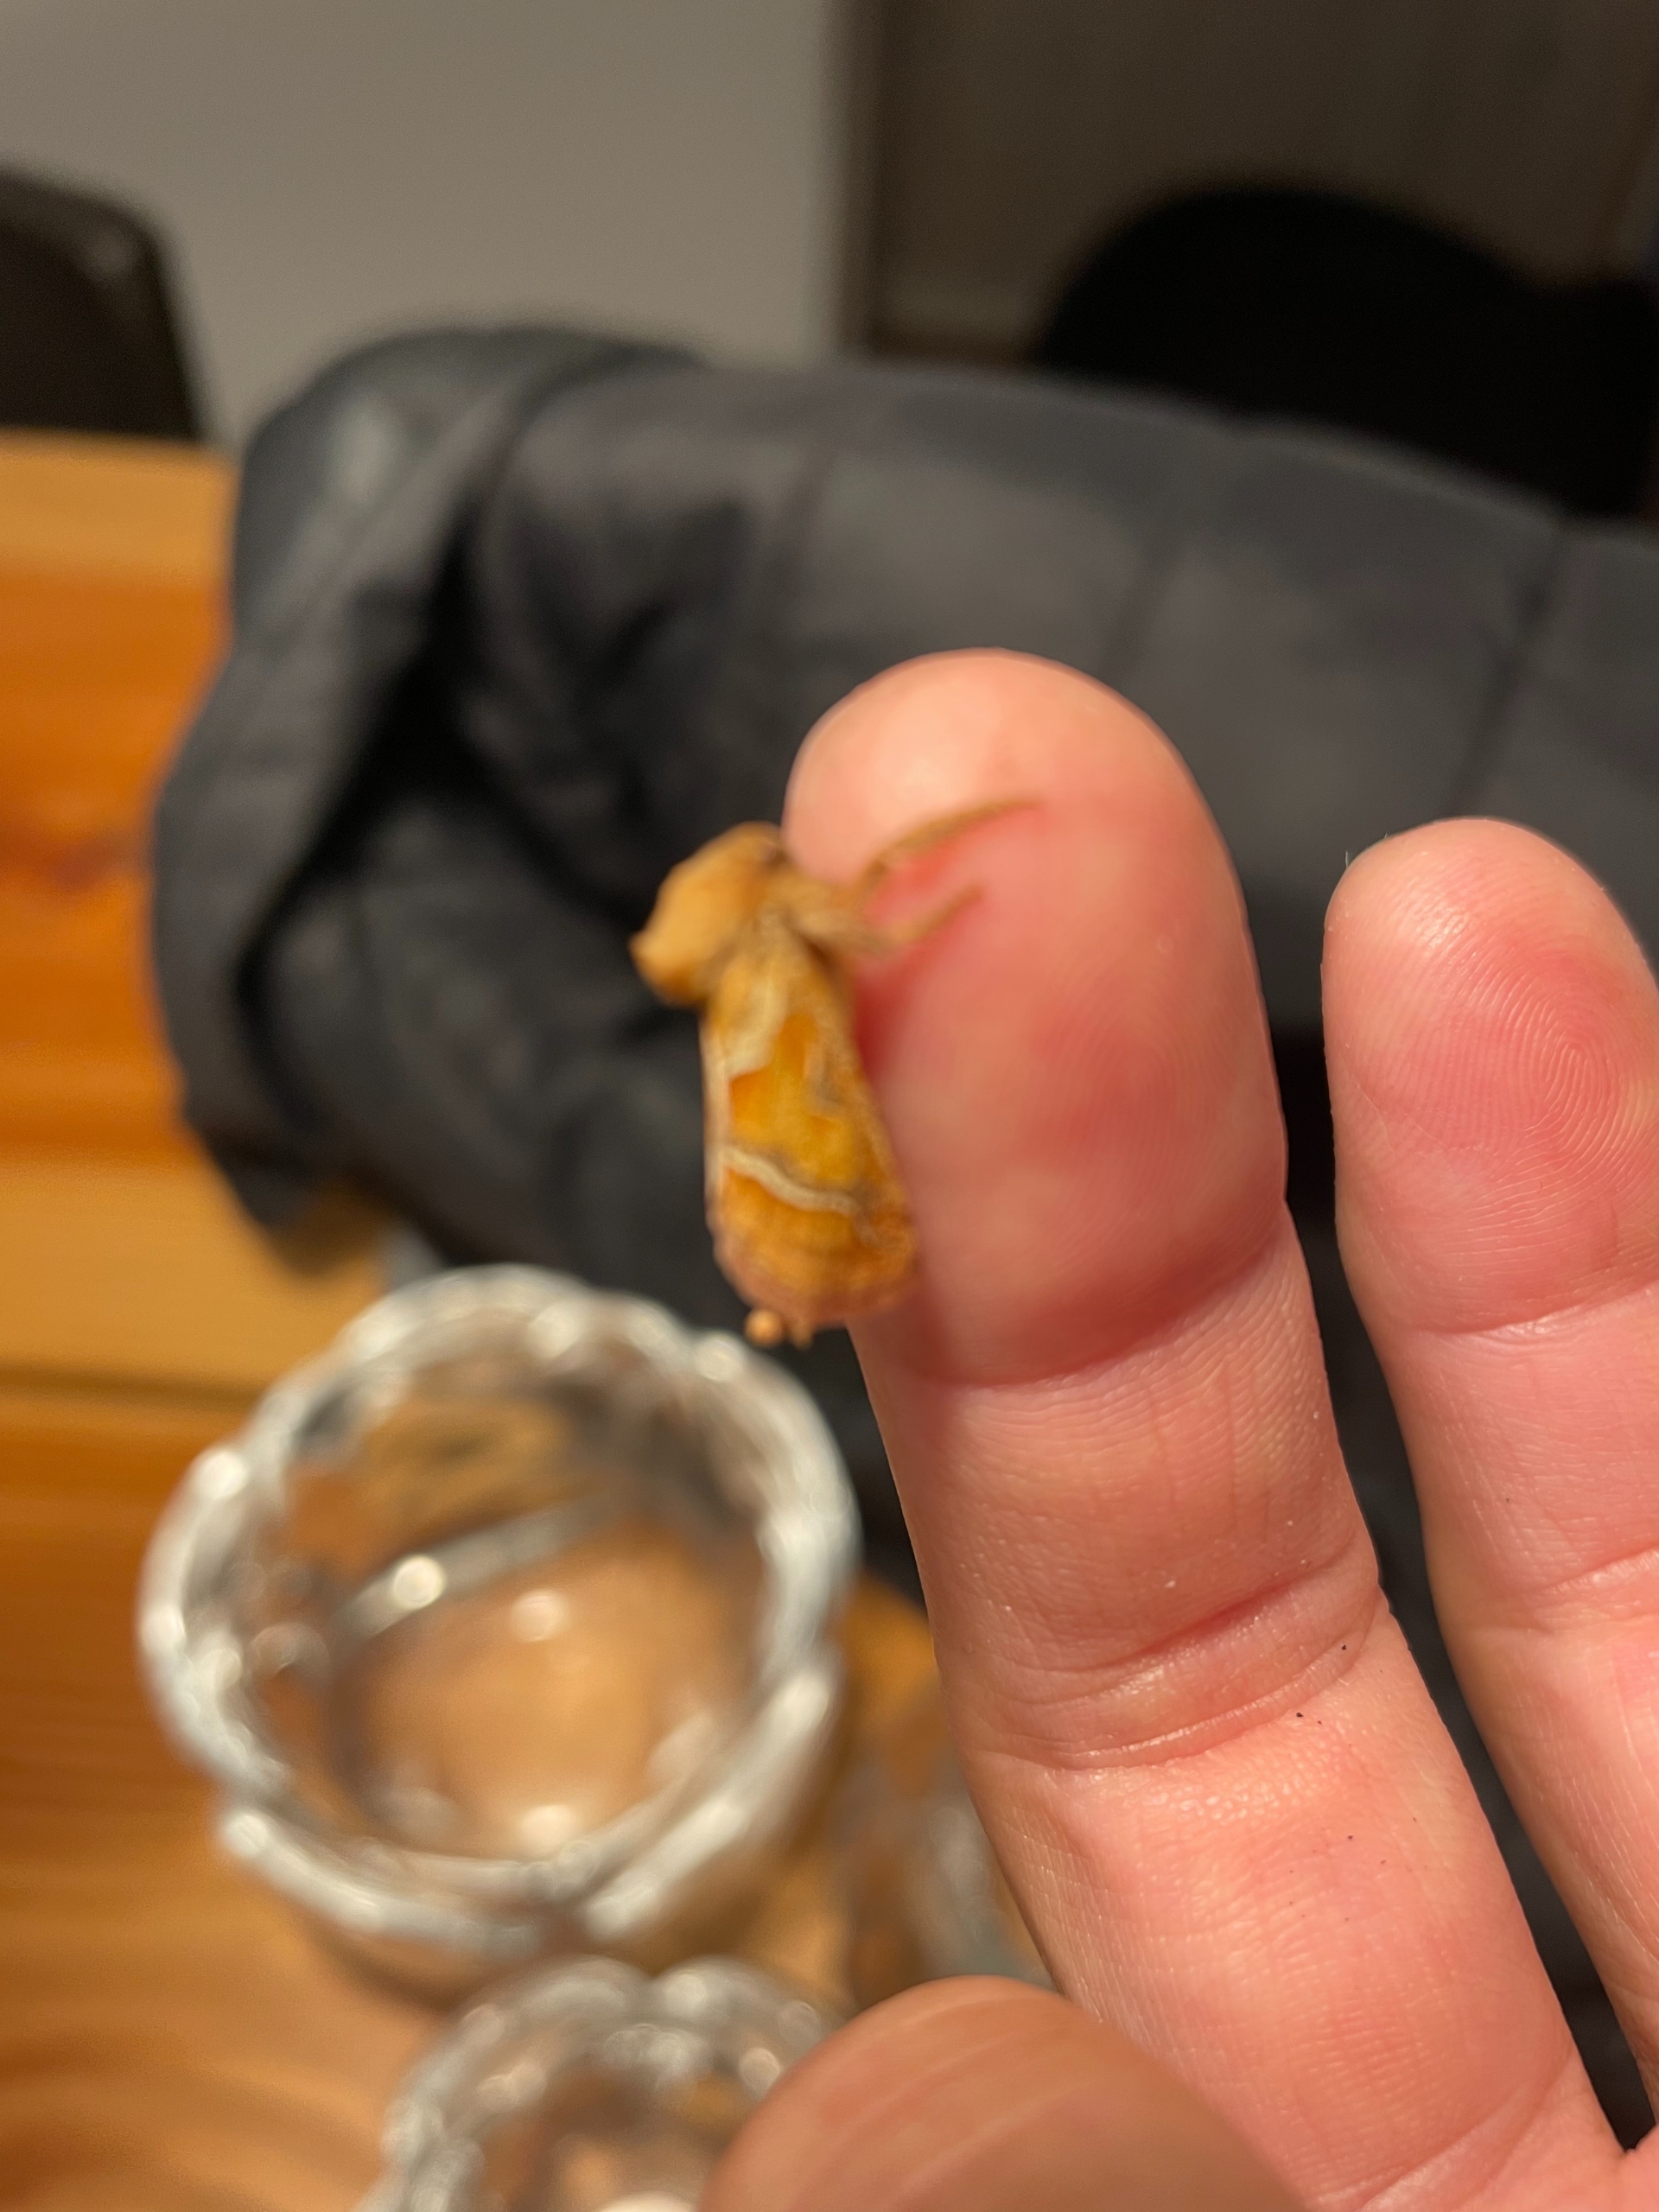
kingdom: Animalia
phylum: Arthropoda
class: Insecta
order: Lepidoptera
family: Hepialidae
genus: Triodia
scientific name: Triodia sylvina
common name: Skræpperodæder
